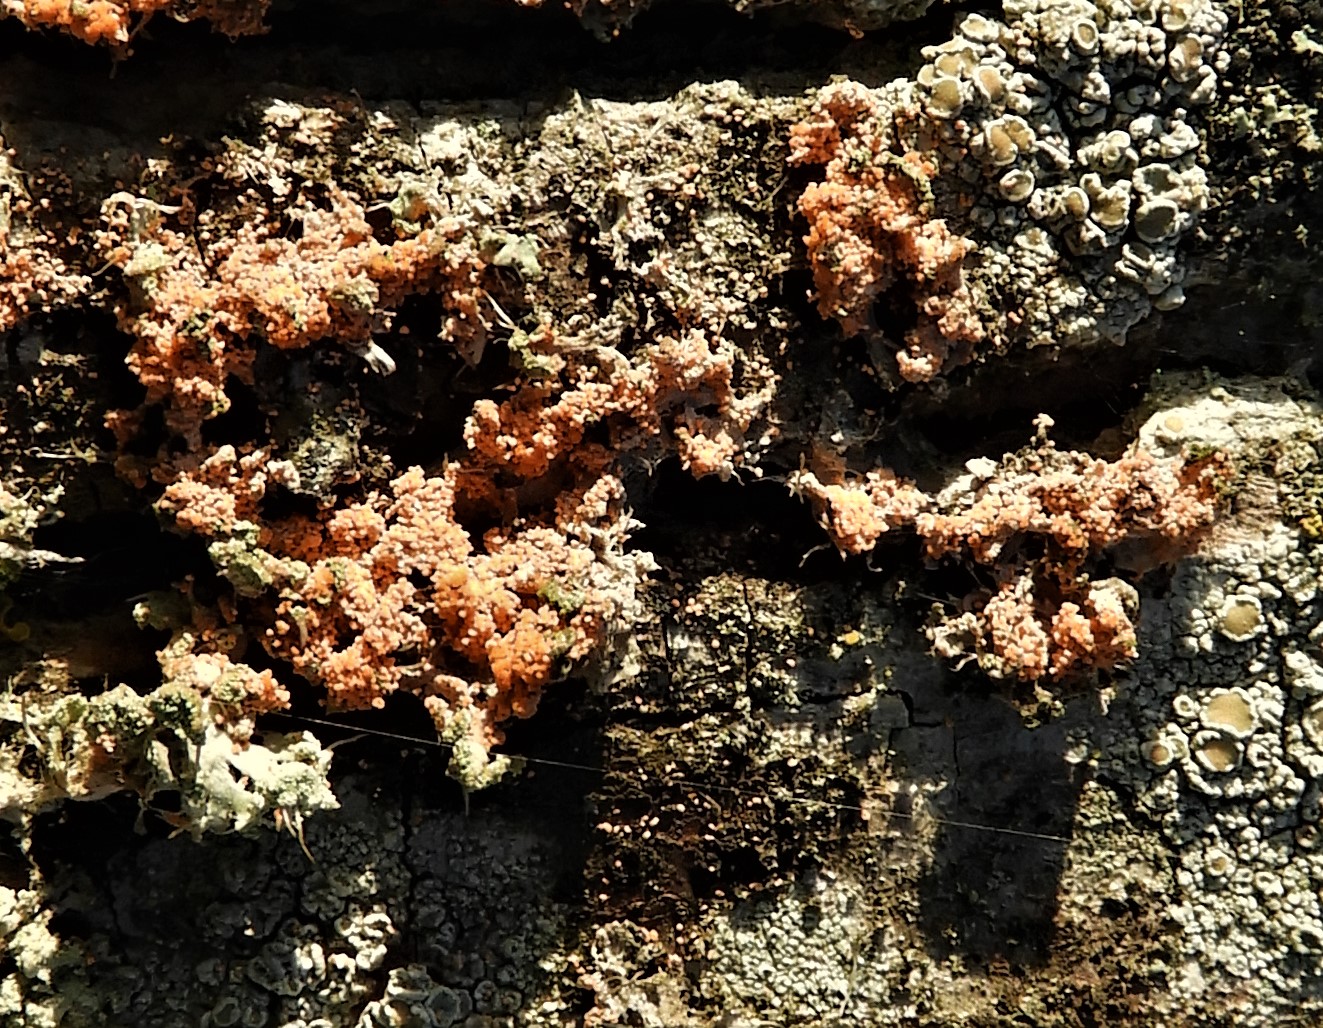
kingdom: Fungi
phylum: Basidiomycota
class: Agaricomycetes
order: Corticiales
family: Corticiaceae
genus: Erythricium
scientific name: Erythricium aurantiacum
